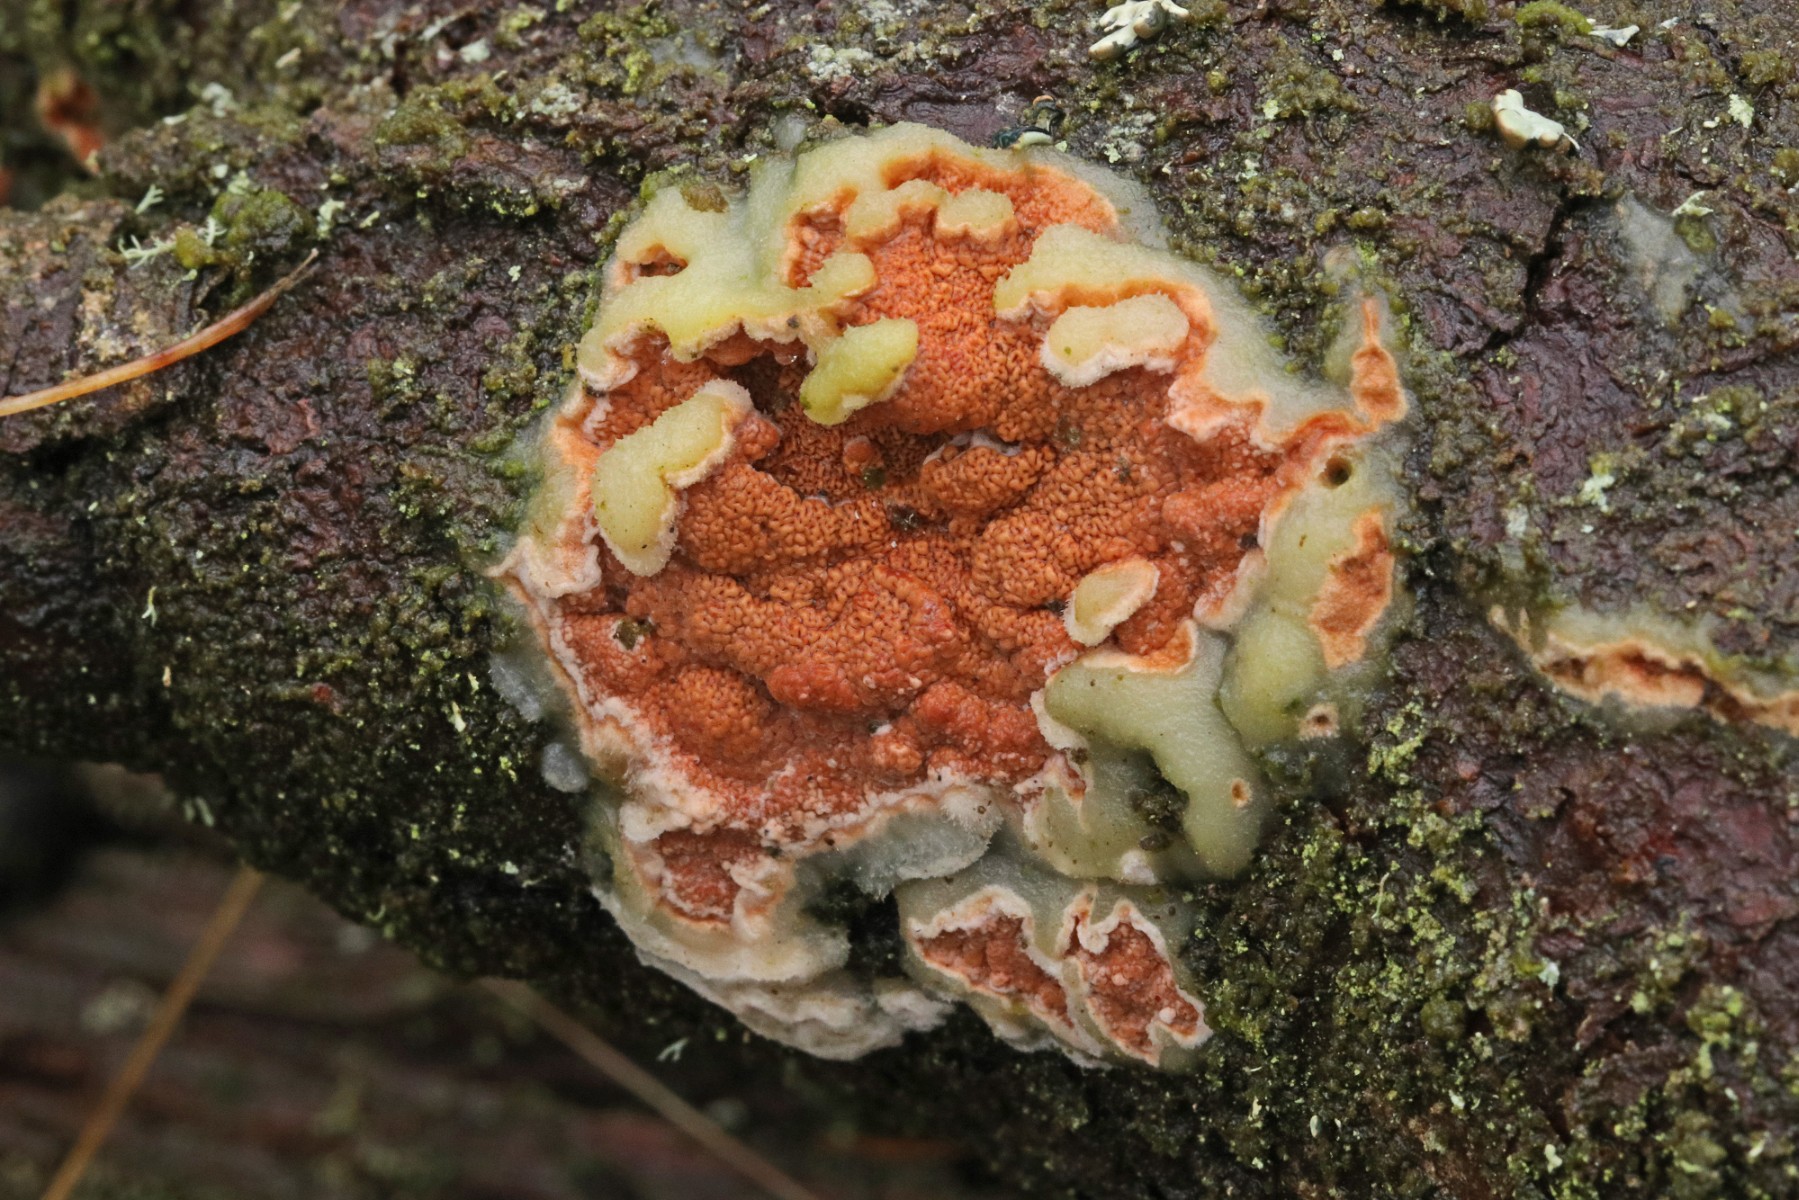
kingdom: Fungi
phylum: Basidiomycota
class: Agaricomycetes
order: Polyporales
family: Irpicaceae
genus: Meruliopsis
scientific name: Meruliopsis taxicola
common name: purpurbrun foldporesvamp
